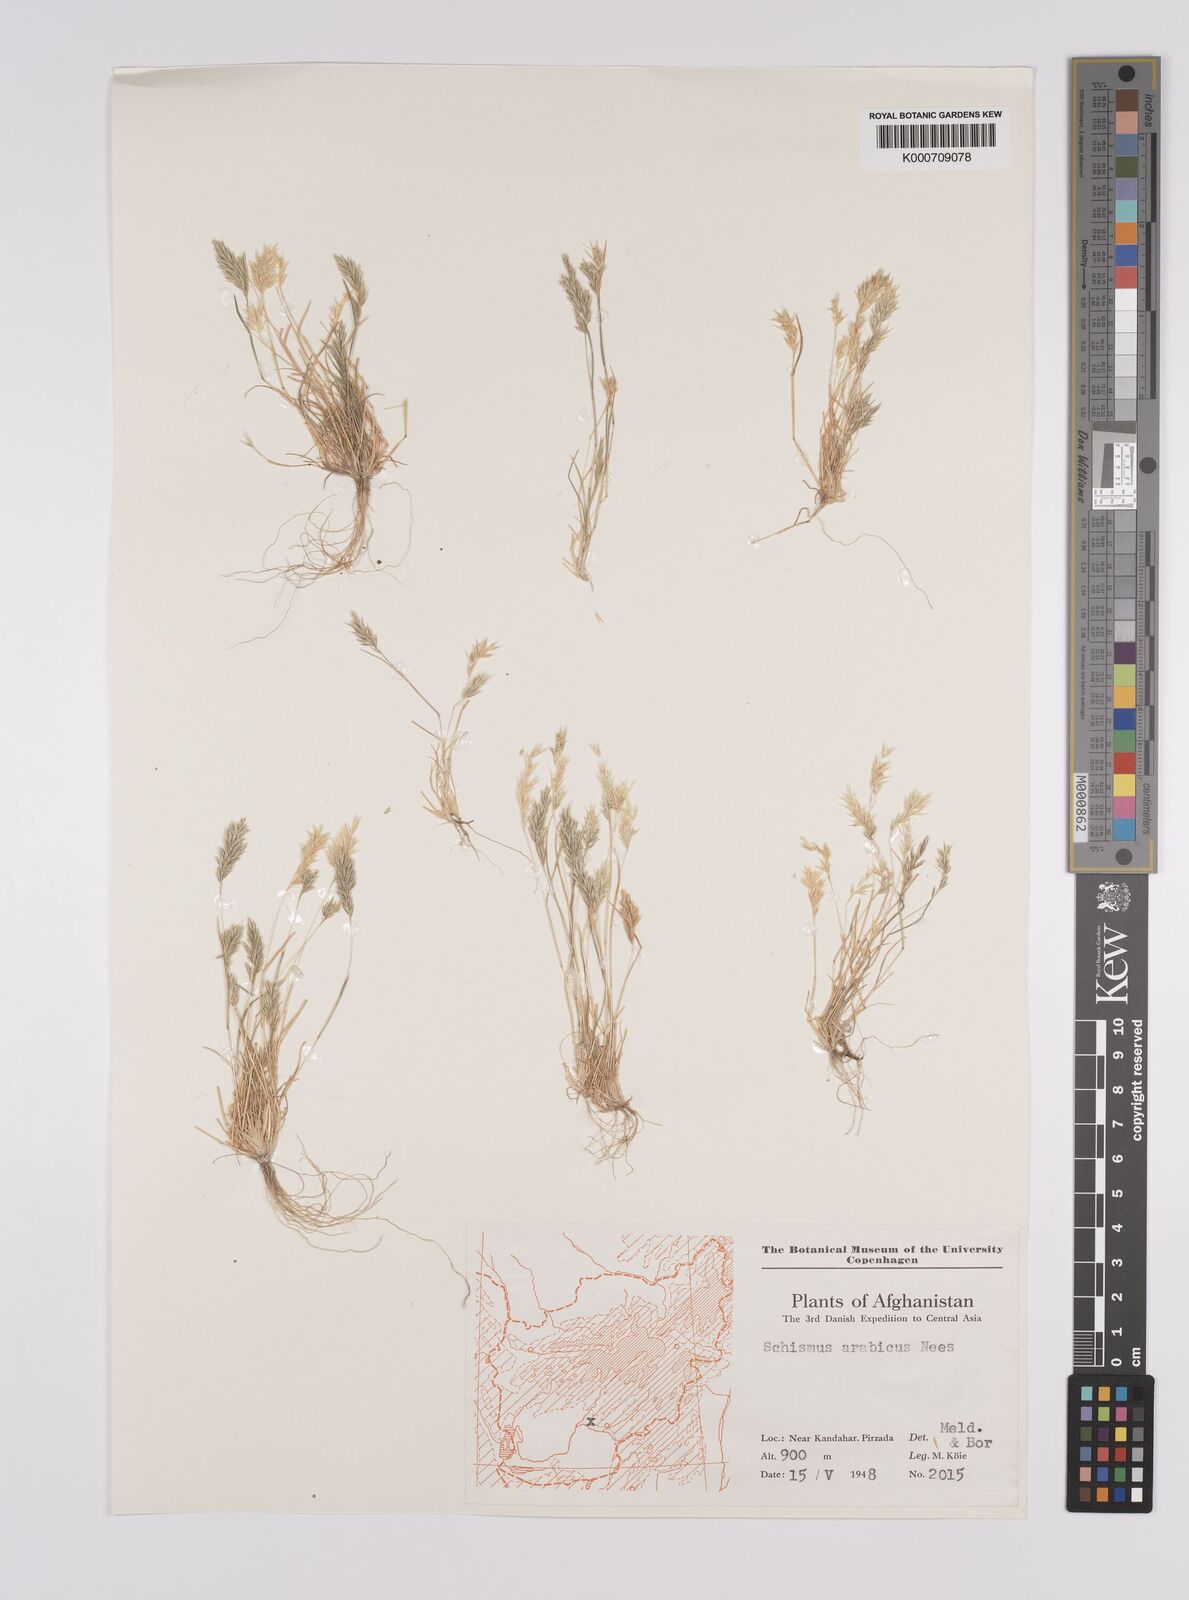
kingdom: Plantae
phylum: Tracheophyta
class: Liliopsida
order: Poales
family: Poaceae
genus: Schismus
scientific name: Schismus arabicus
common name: Arabian schismus
